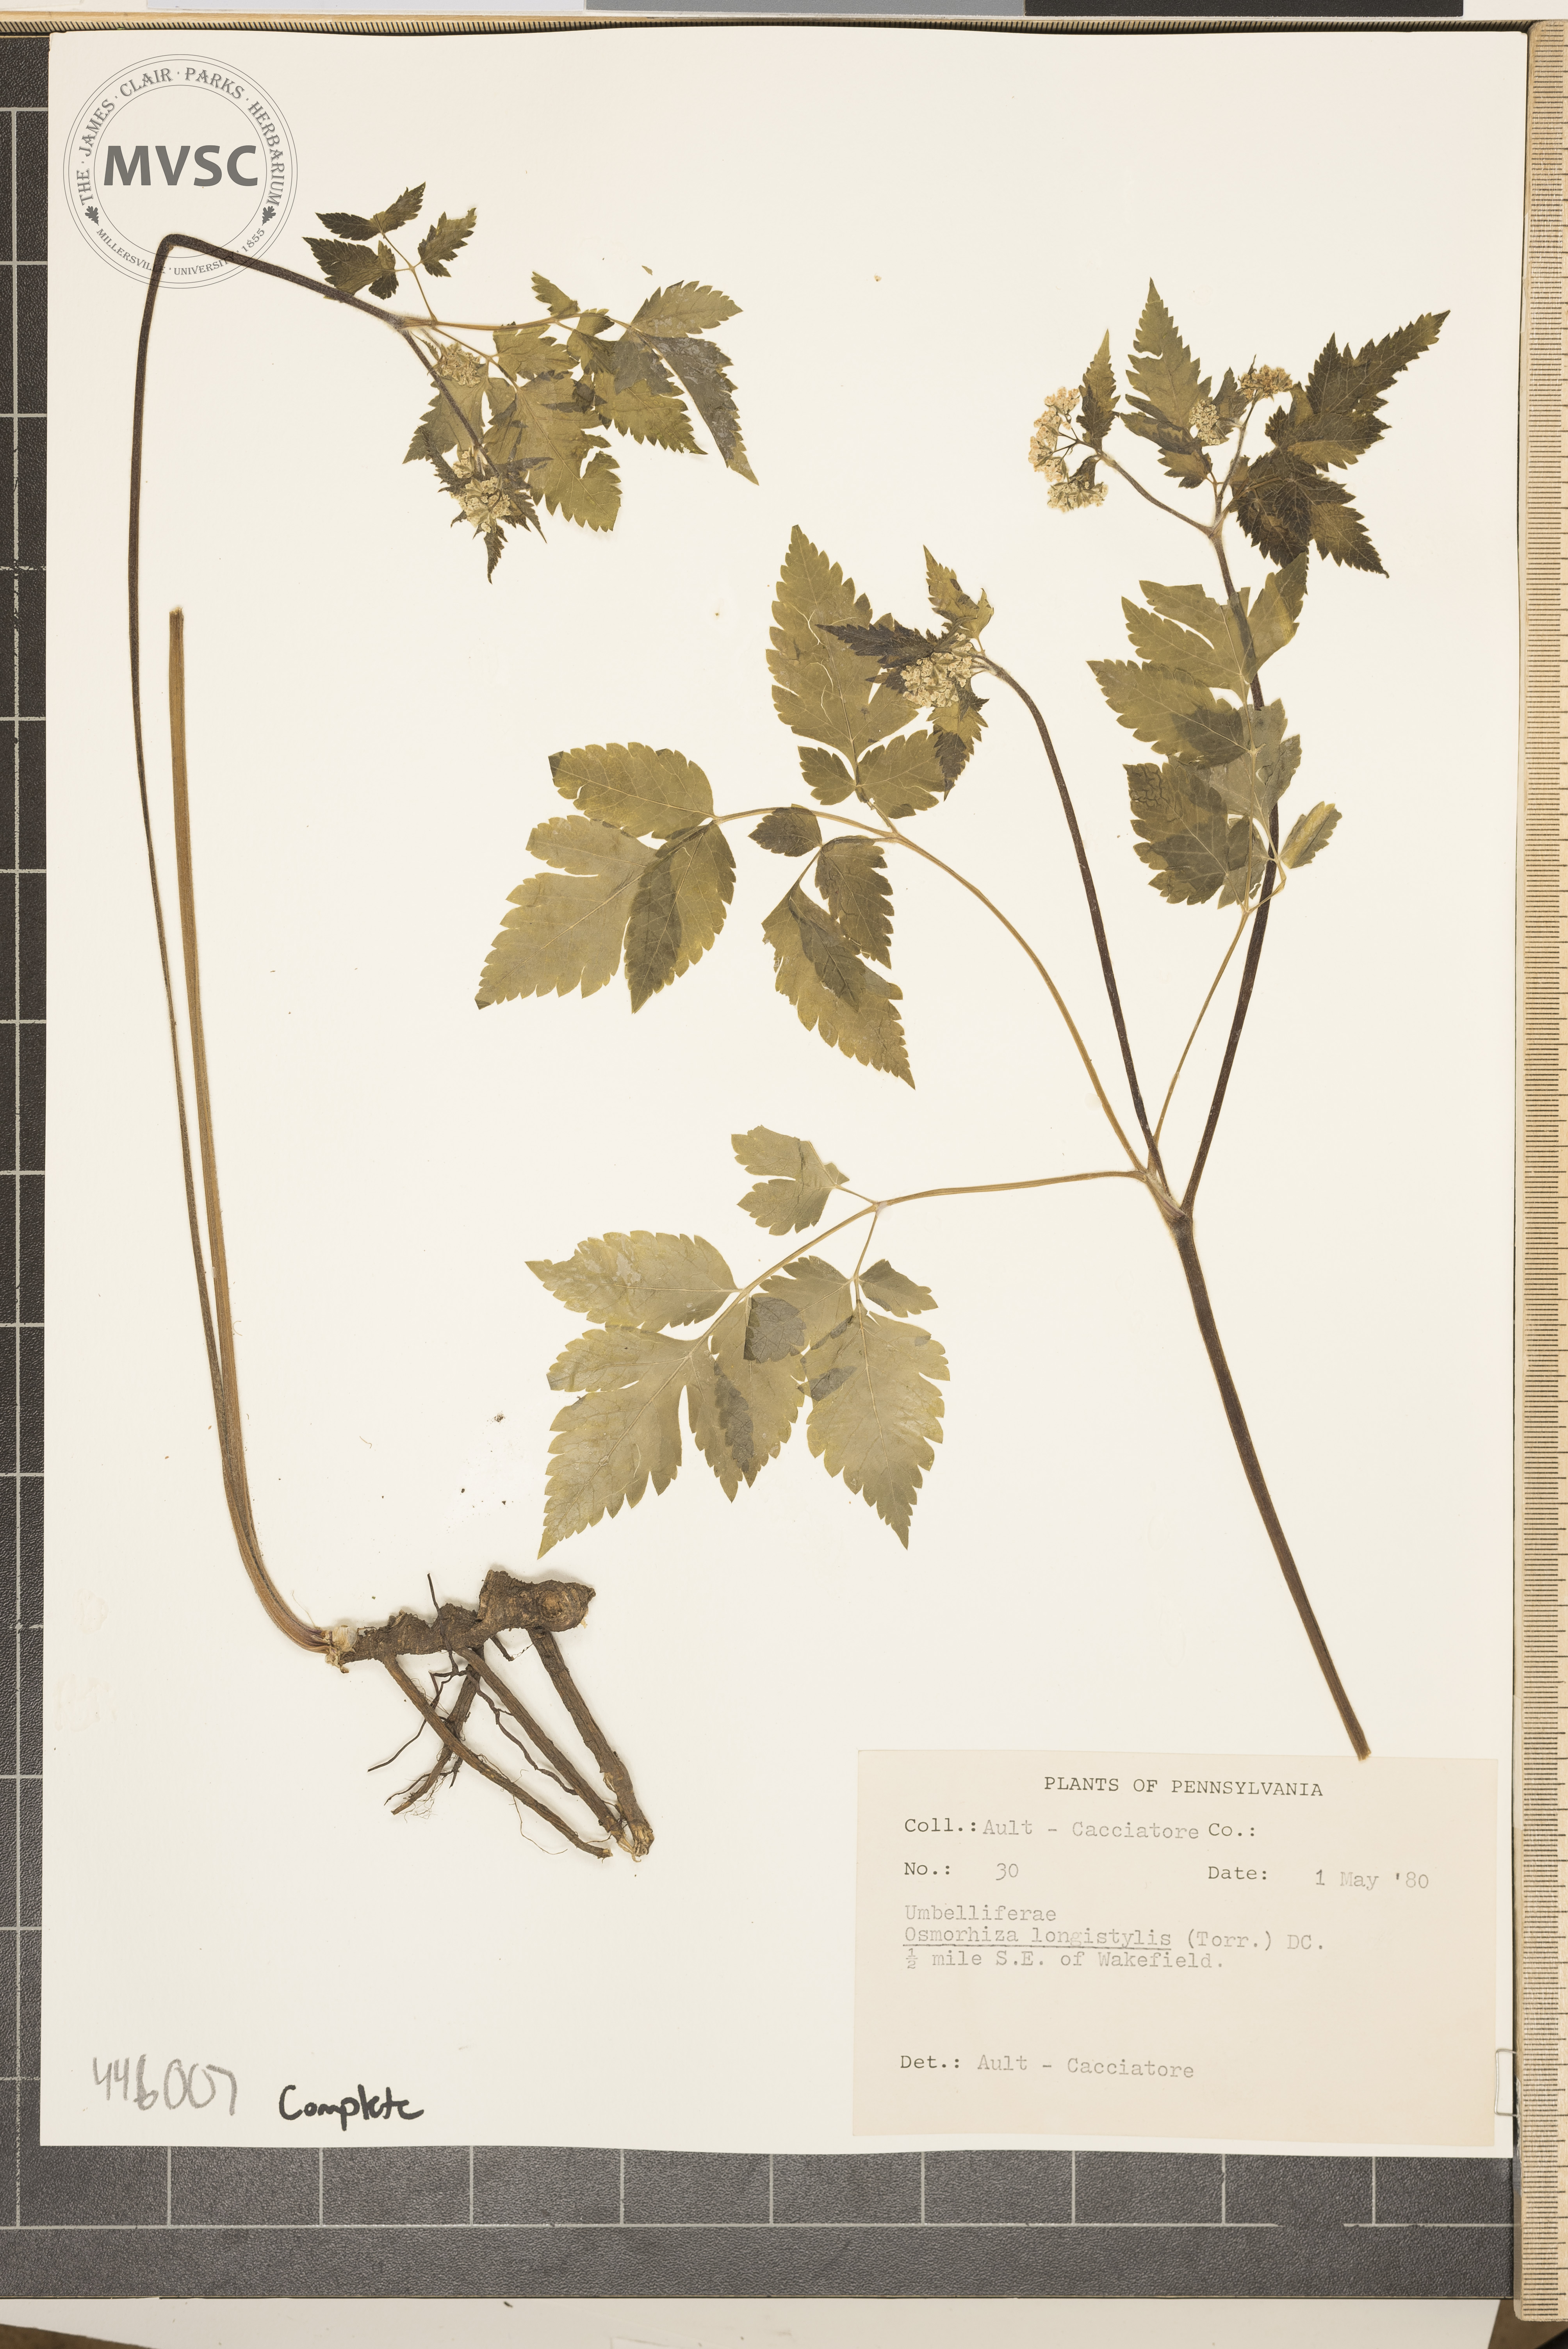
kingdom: Plantae
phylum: Tracheophyta
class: Magnoliopsida
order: Apiales
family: Apiaceae
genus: Osmorhiza
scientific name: Osmorhiza longistylis
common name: Smooth sweet cicely
